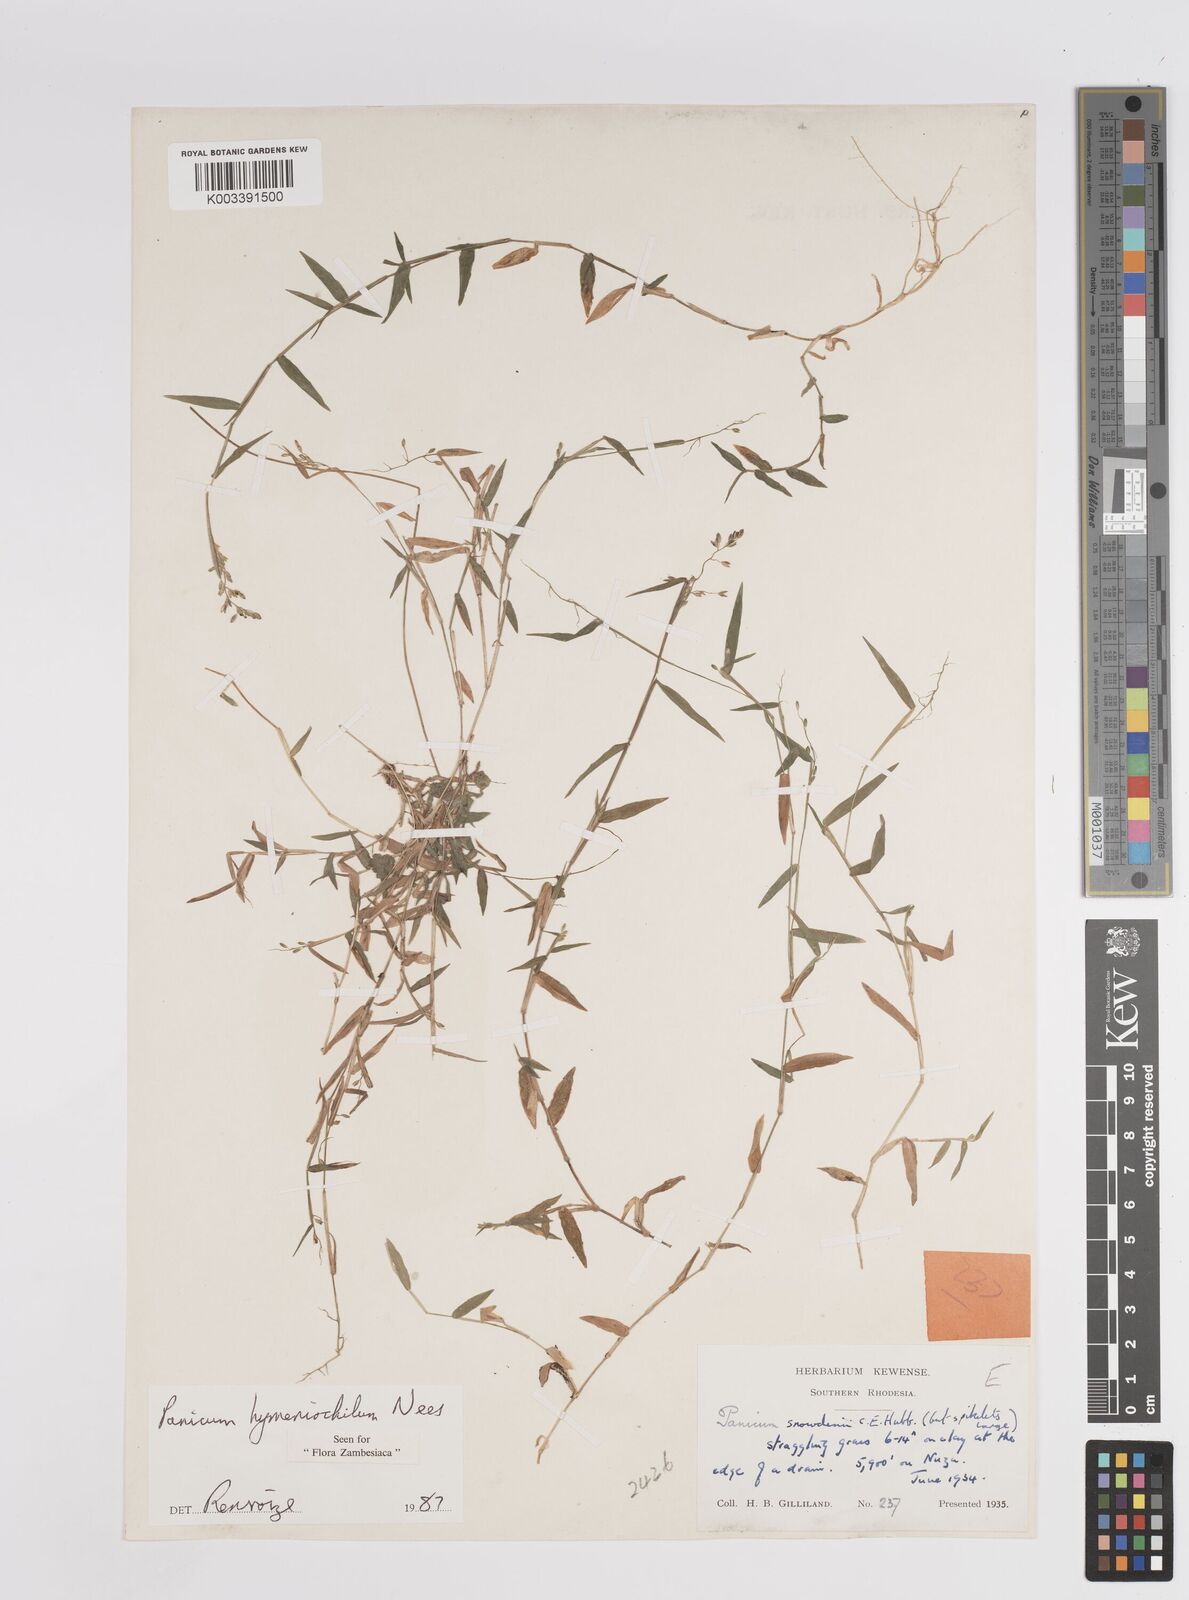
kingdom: Plantae
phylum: Tracheophyta
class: Liliopsida
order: Poales
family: Poaceae
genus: Adenochloa
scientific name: Adenochloa hymeniochila
